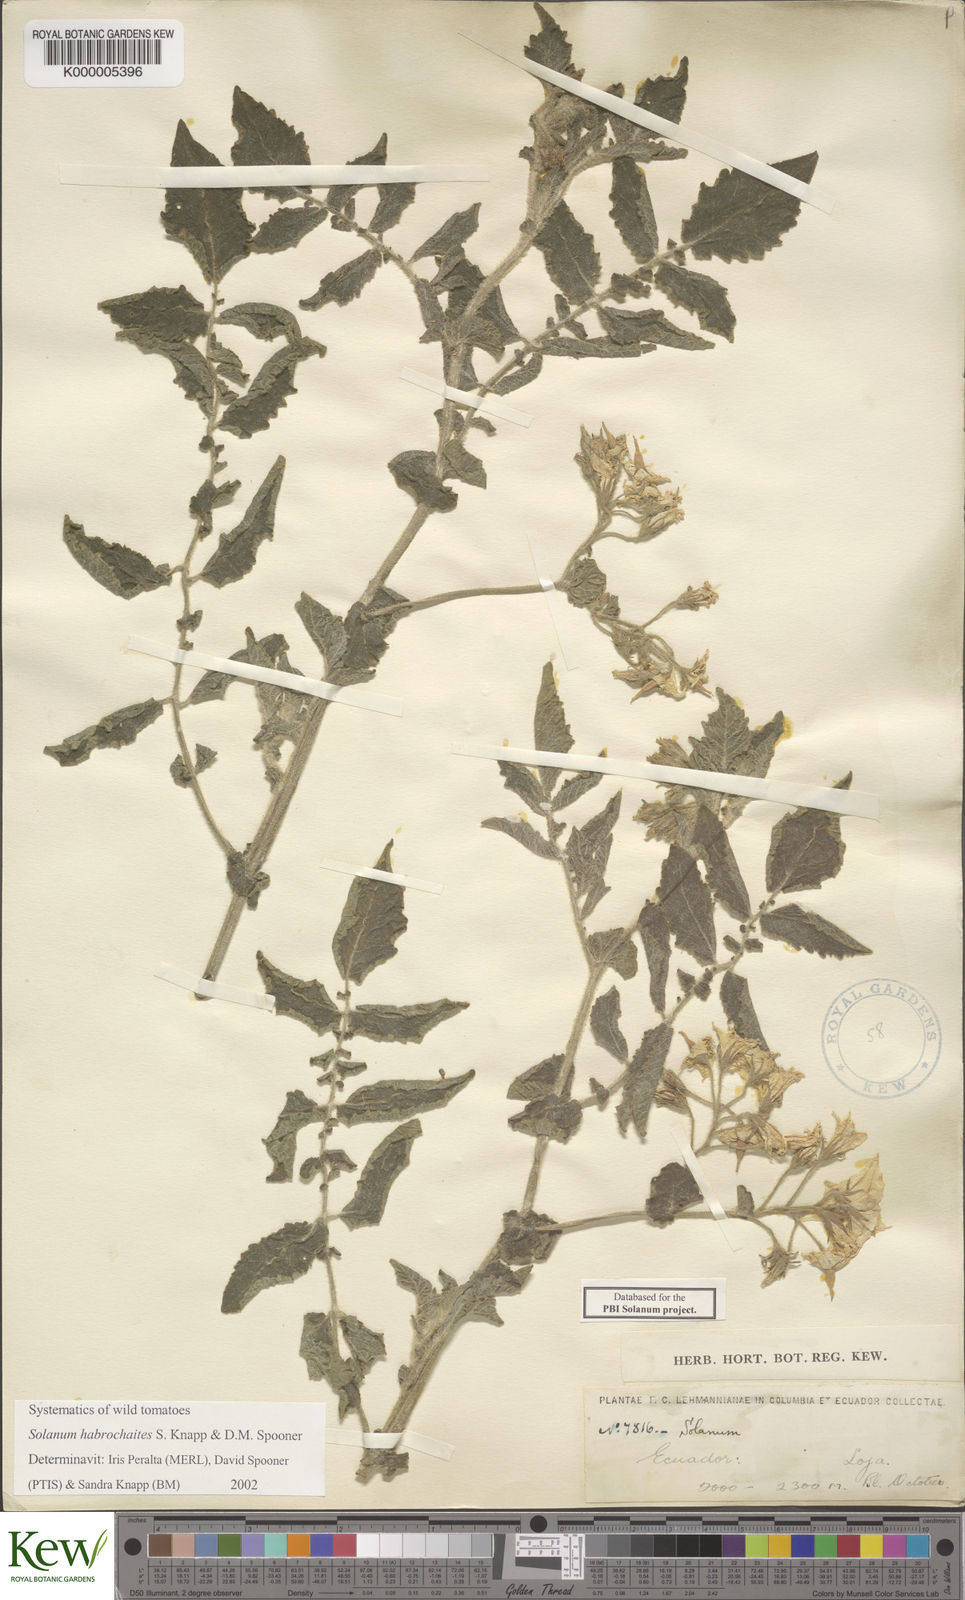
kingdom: Plantae
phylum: Tracheophyta
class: Magnoliopsida
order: Solanales
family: Solanaceae
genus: Solanum
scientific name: Solanum habrochaites
